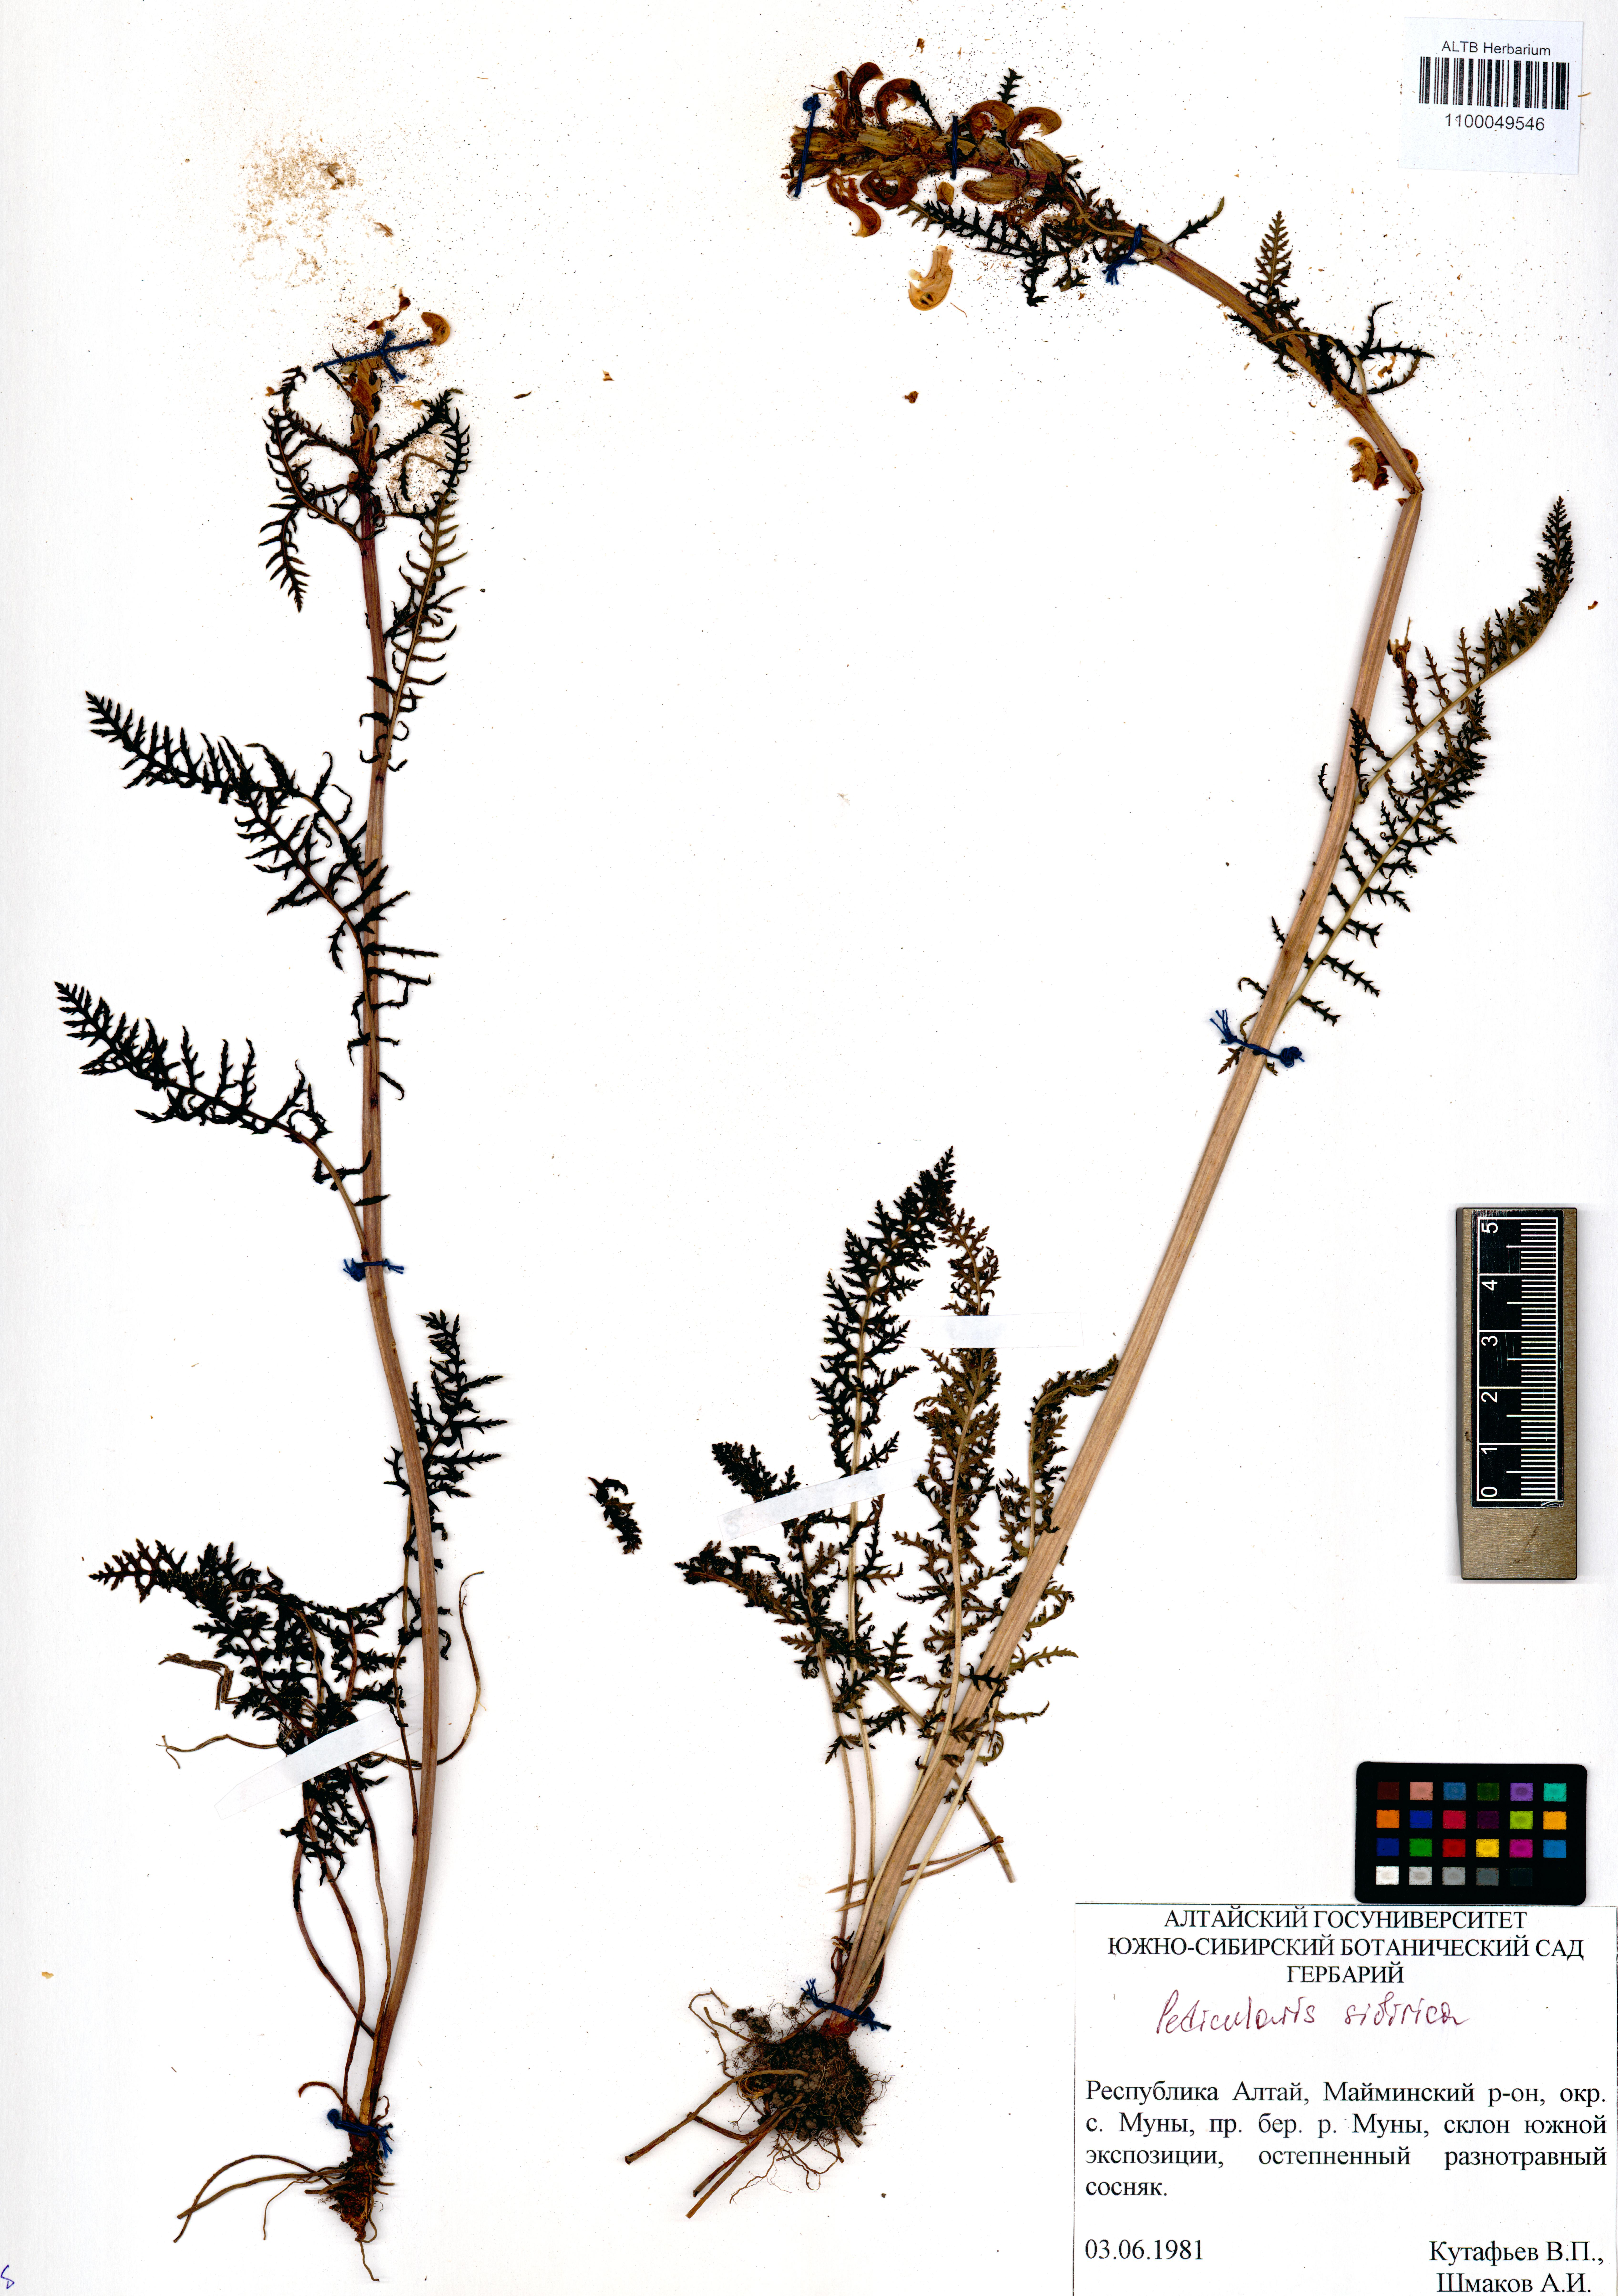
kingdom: Plantae
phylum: Tracheophyta
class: Magnoliopsida
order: Lamiales
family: Orobanchaceae
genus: Pedicularis
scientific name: Pedicularis sibirica
